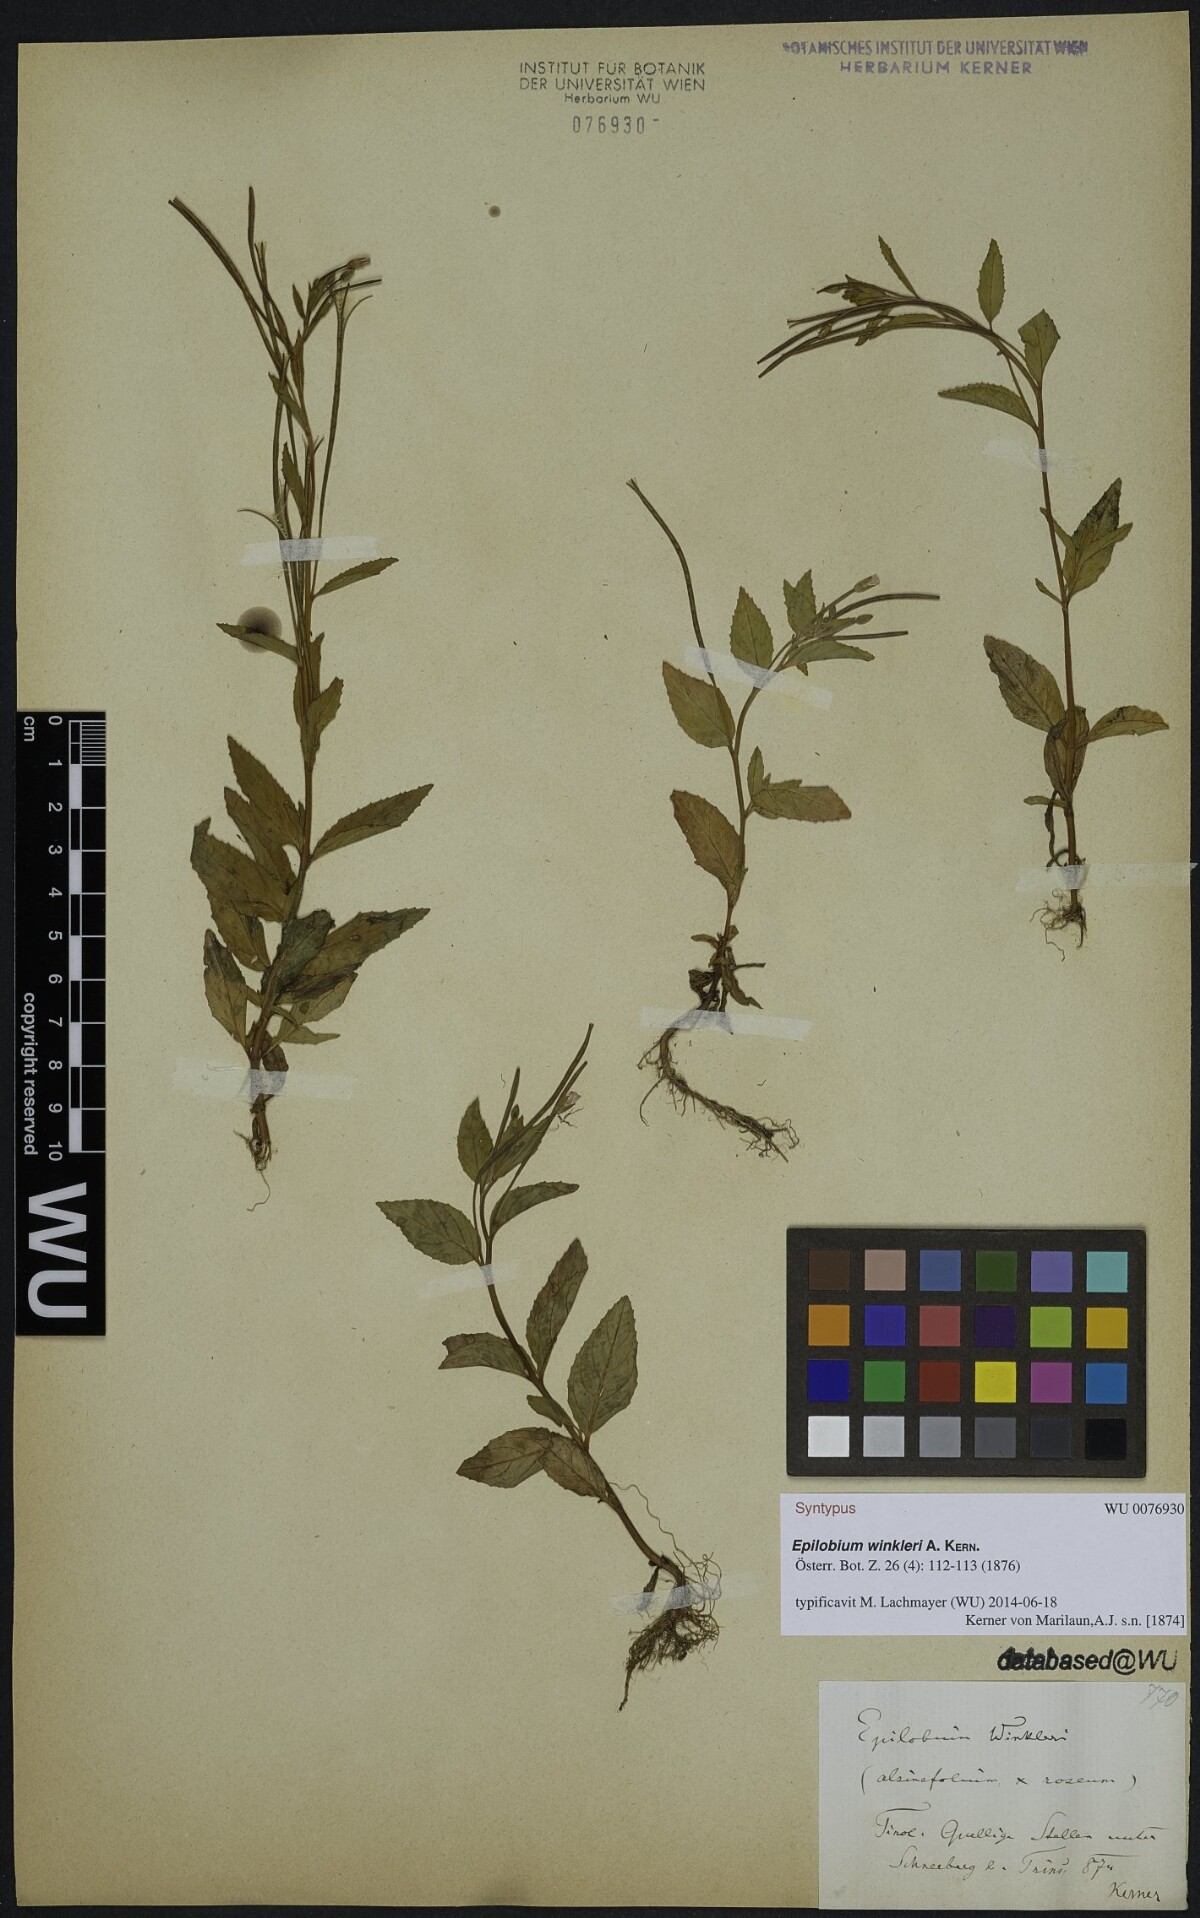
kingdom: Plantae
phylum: Tracheophyta
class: Magnoliopsida
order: Myrtales
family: Onagraceae
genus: Epilobium
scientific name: Epilobium winkleri
